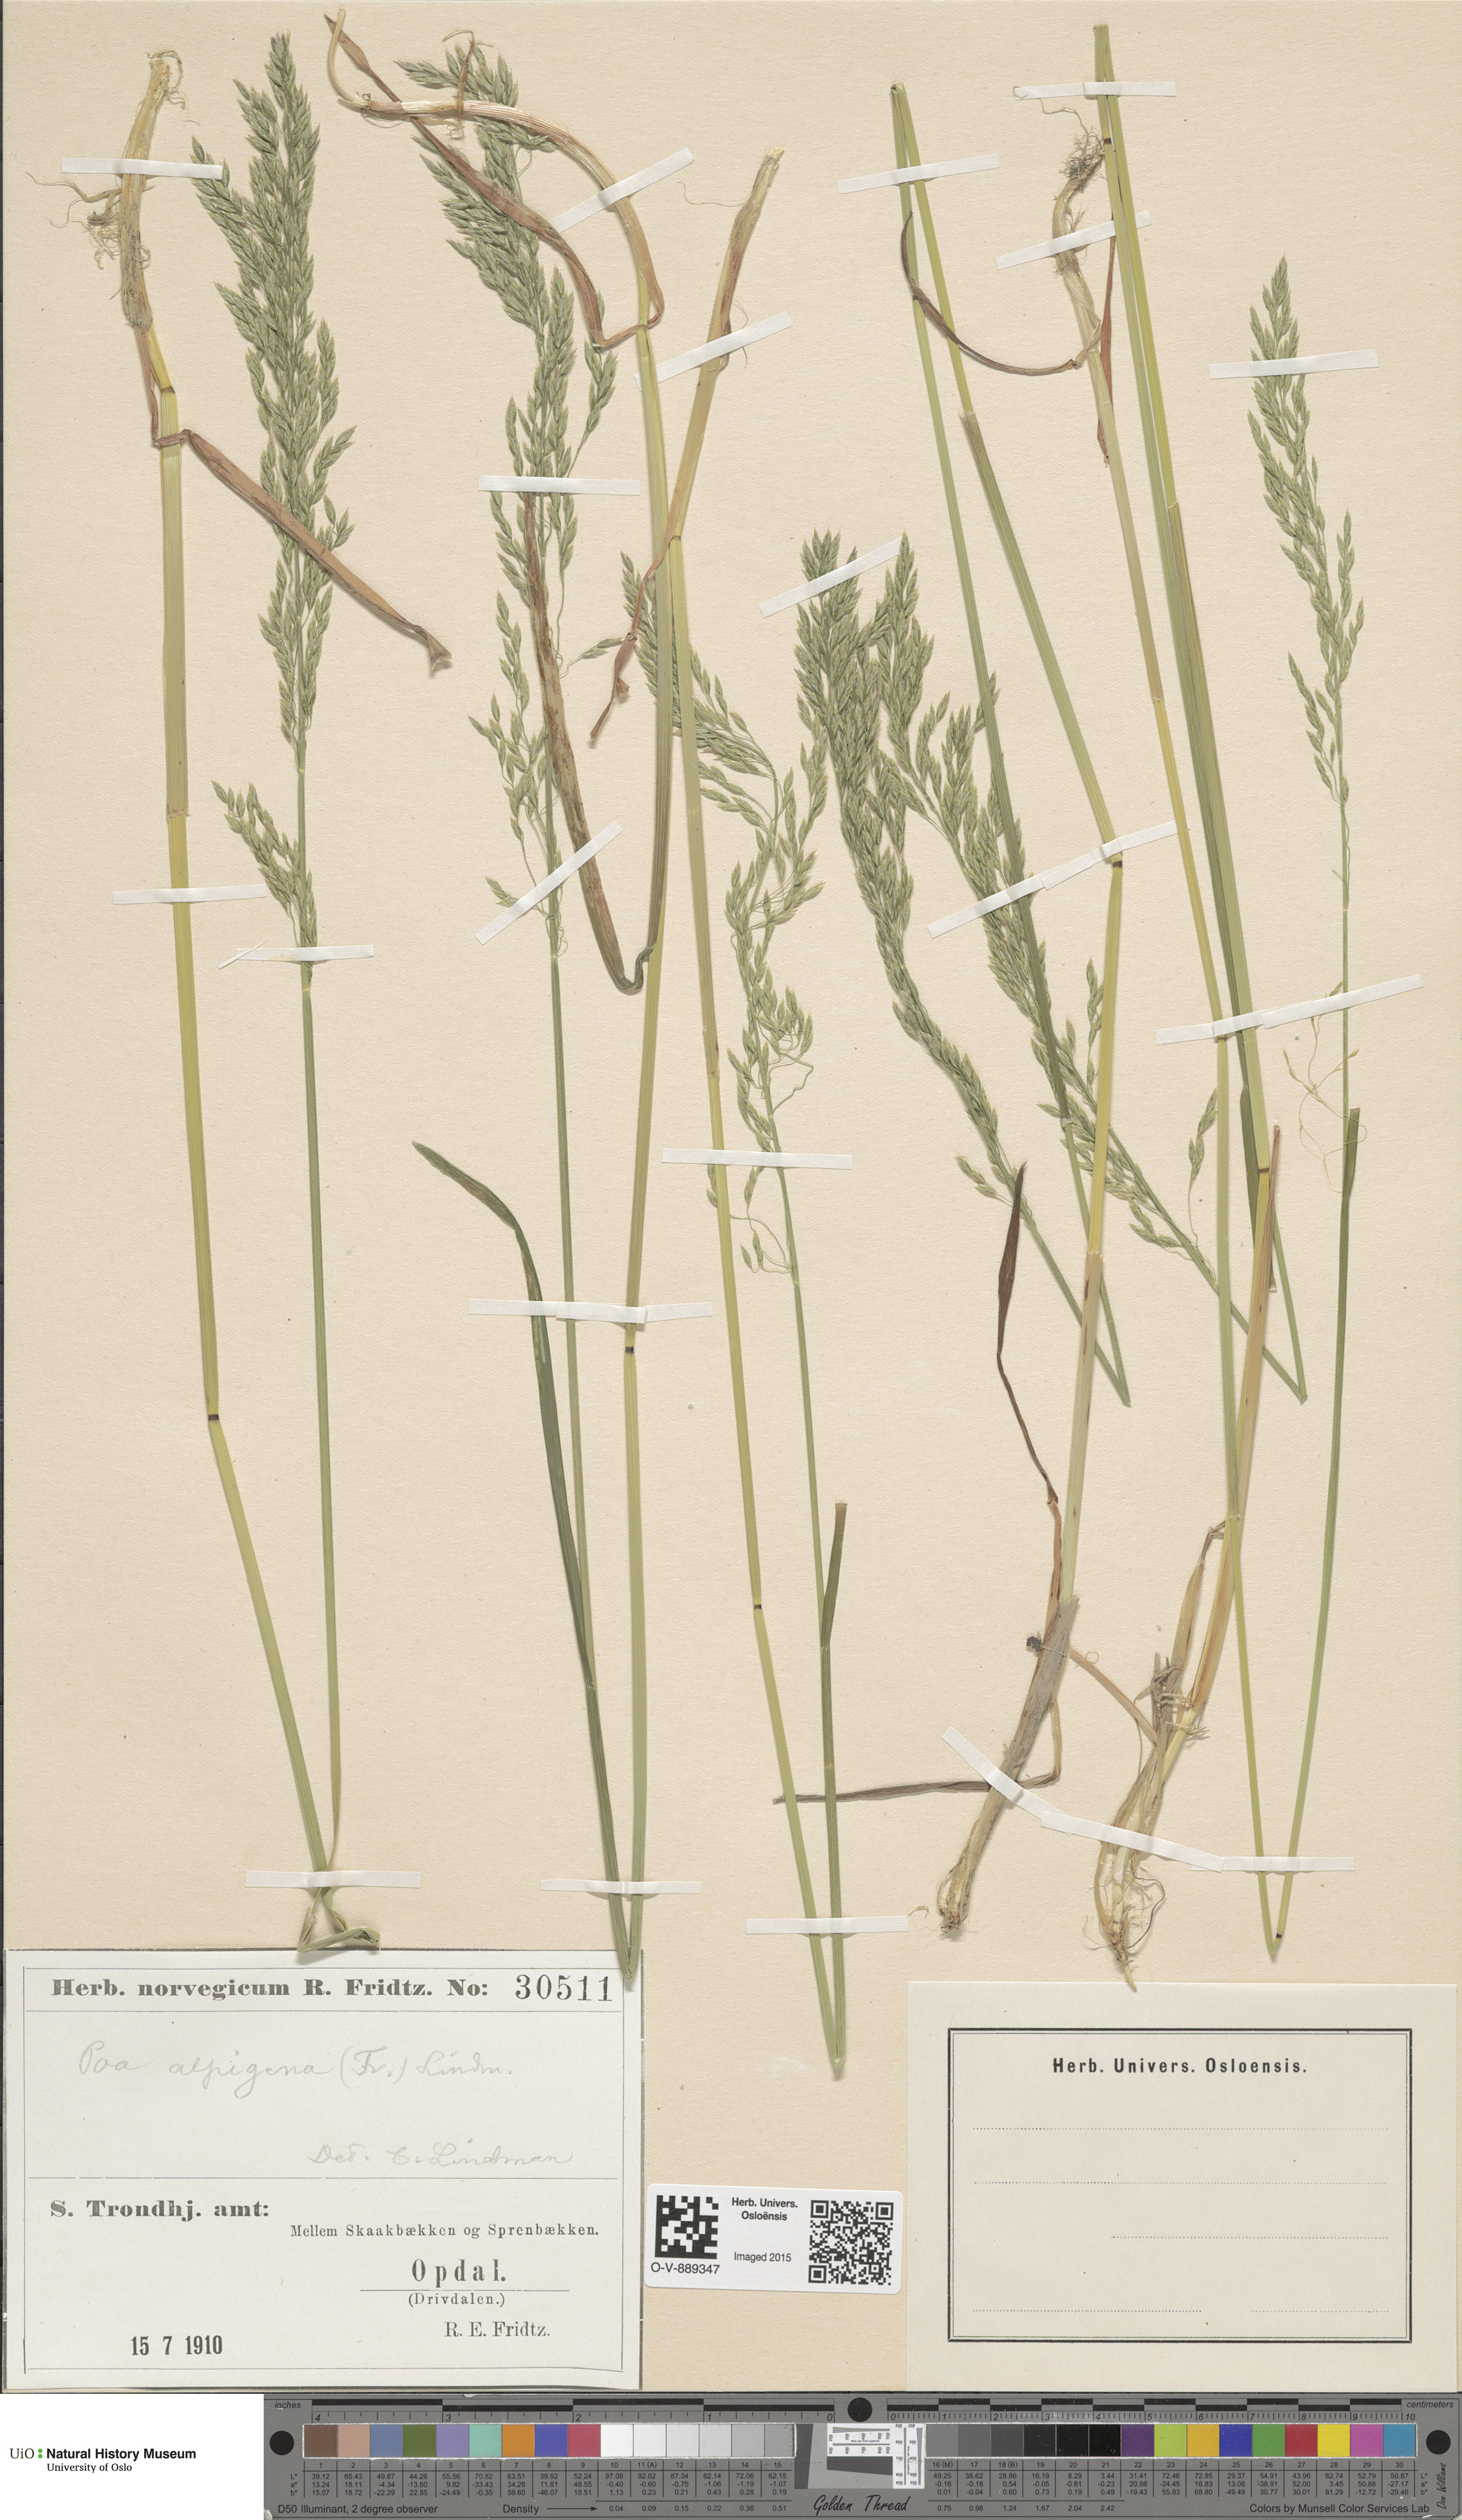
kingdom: Plantae
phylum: Tracheophyta
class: Liliopsida
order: Poales
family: Poaceae
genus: Poa
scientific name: Poa alpigena
